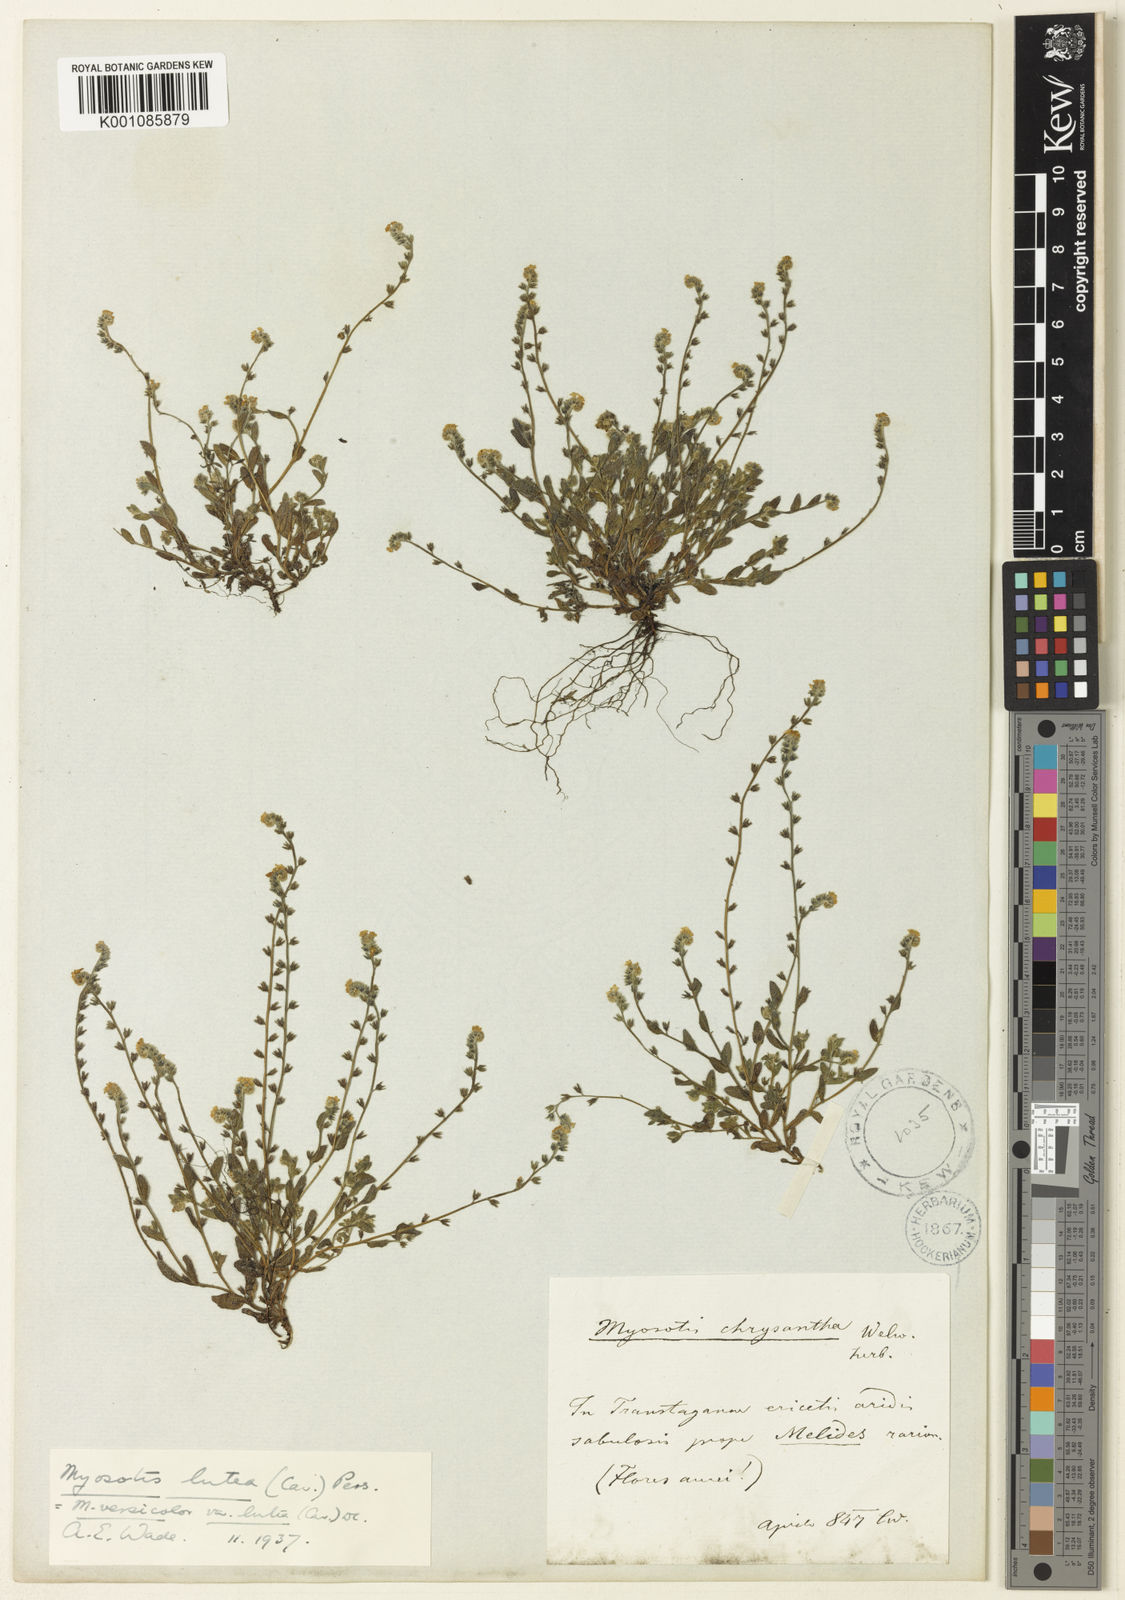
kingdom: Plantae
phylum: Tracheophyta
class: Magnoliopsida
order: Boraginales
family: Boraginaceae
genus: Myosotis
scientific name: Myosotis
